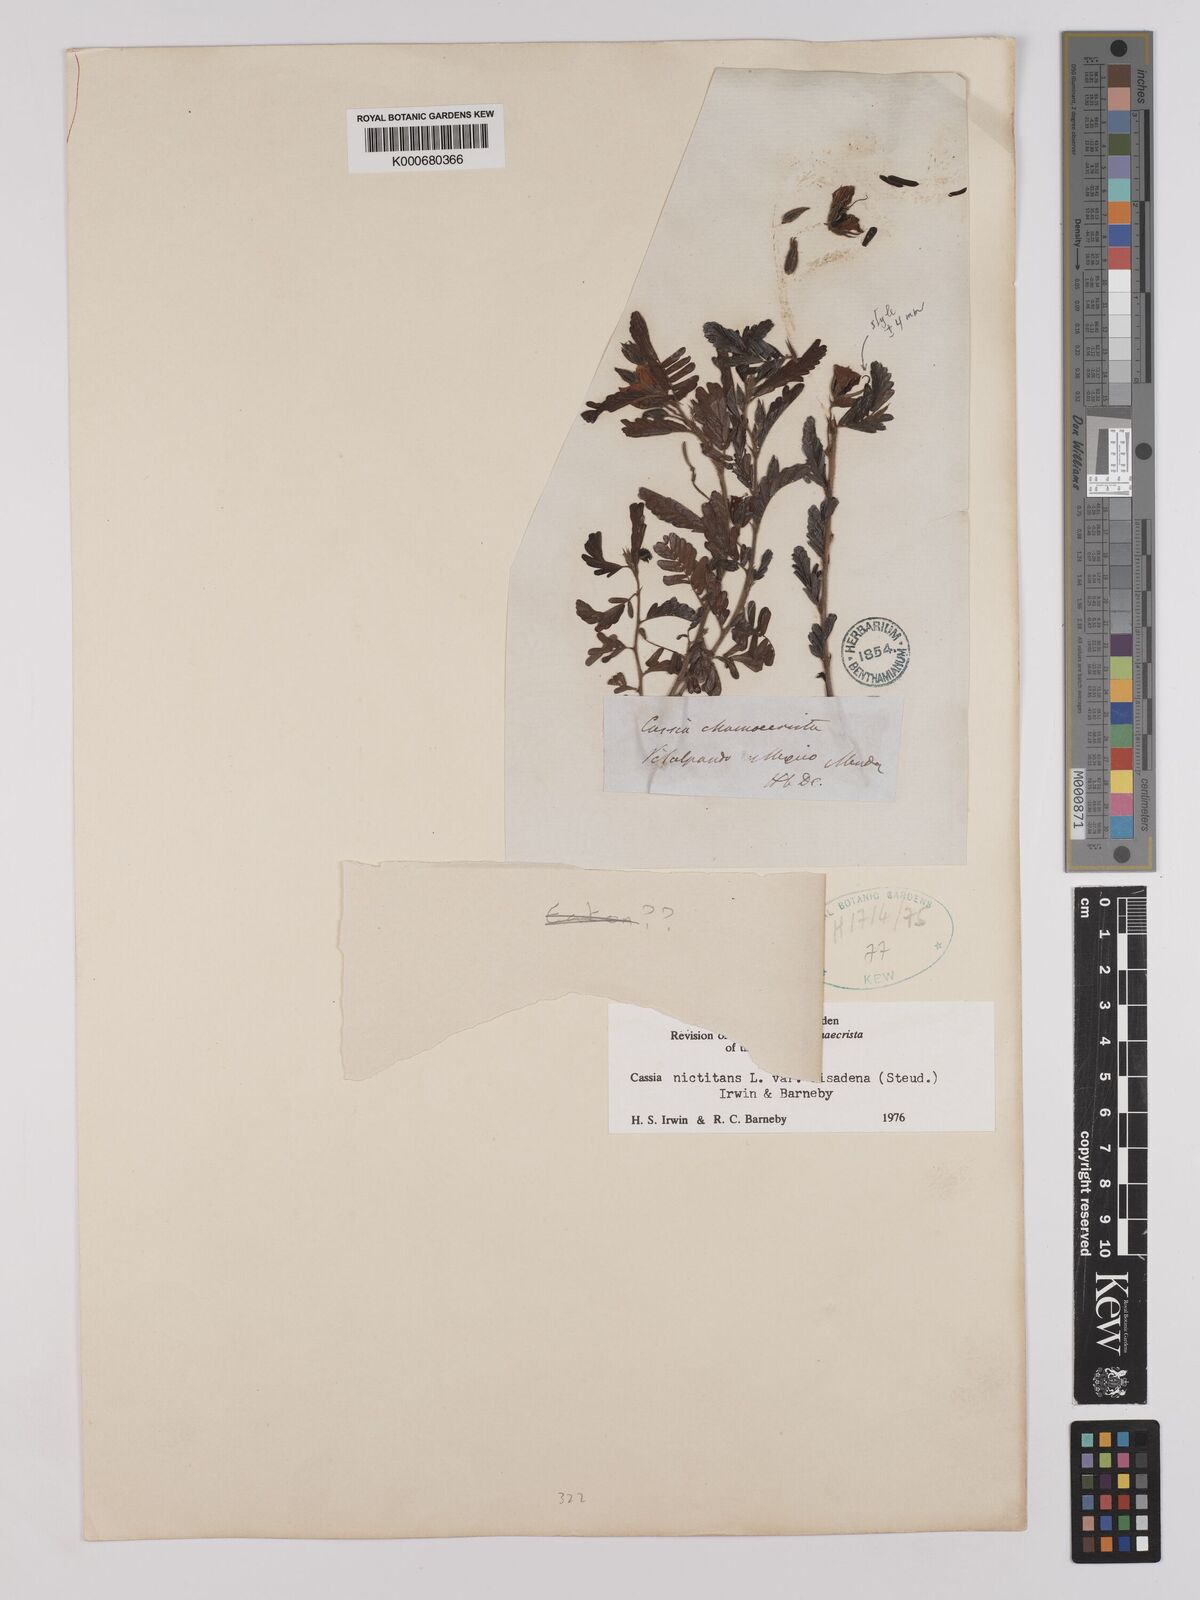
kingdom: Plantae
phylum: Tracheophyta
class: Magnoliopsida
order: Fabales
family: Fabaceae
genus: Chamaecrista
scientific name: Chamaecrista nictitans
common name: Sensitive cassia
